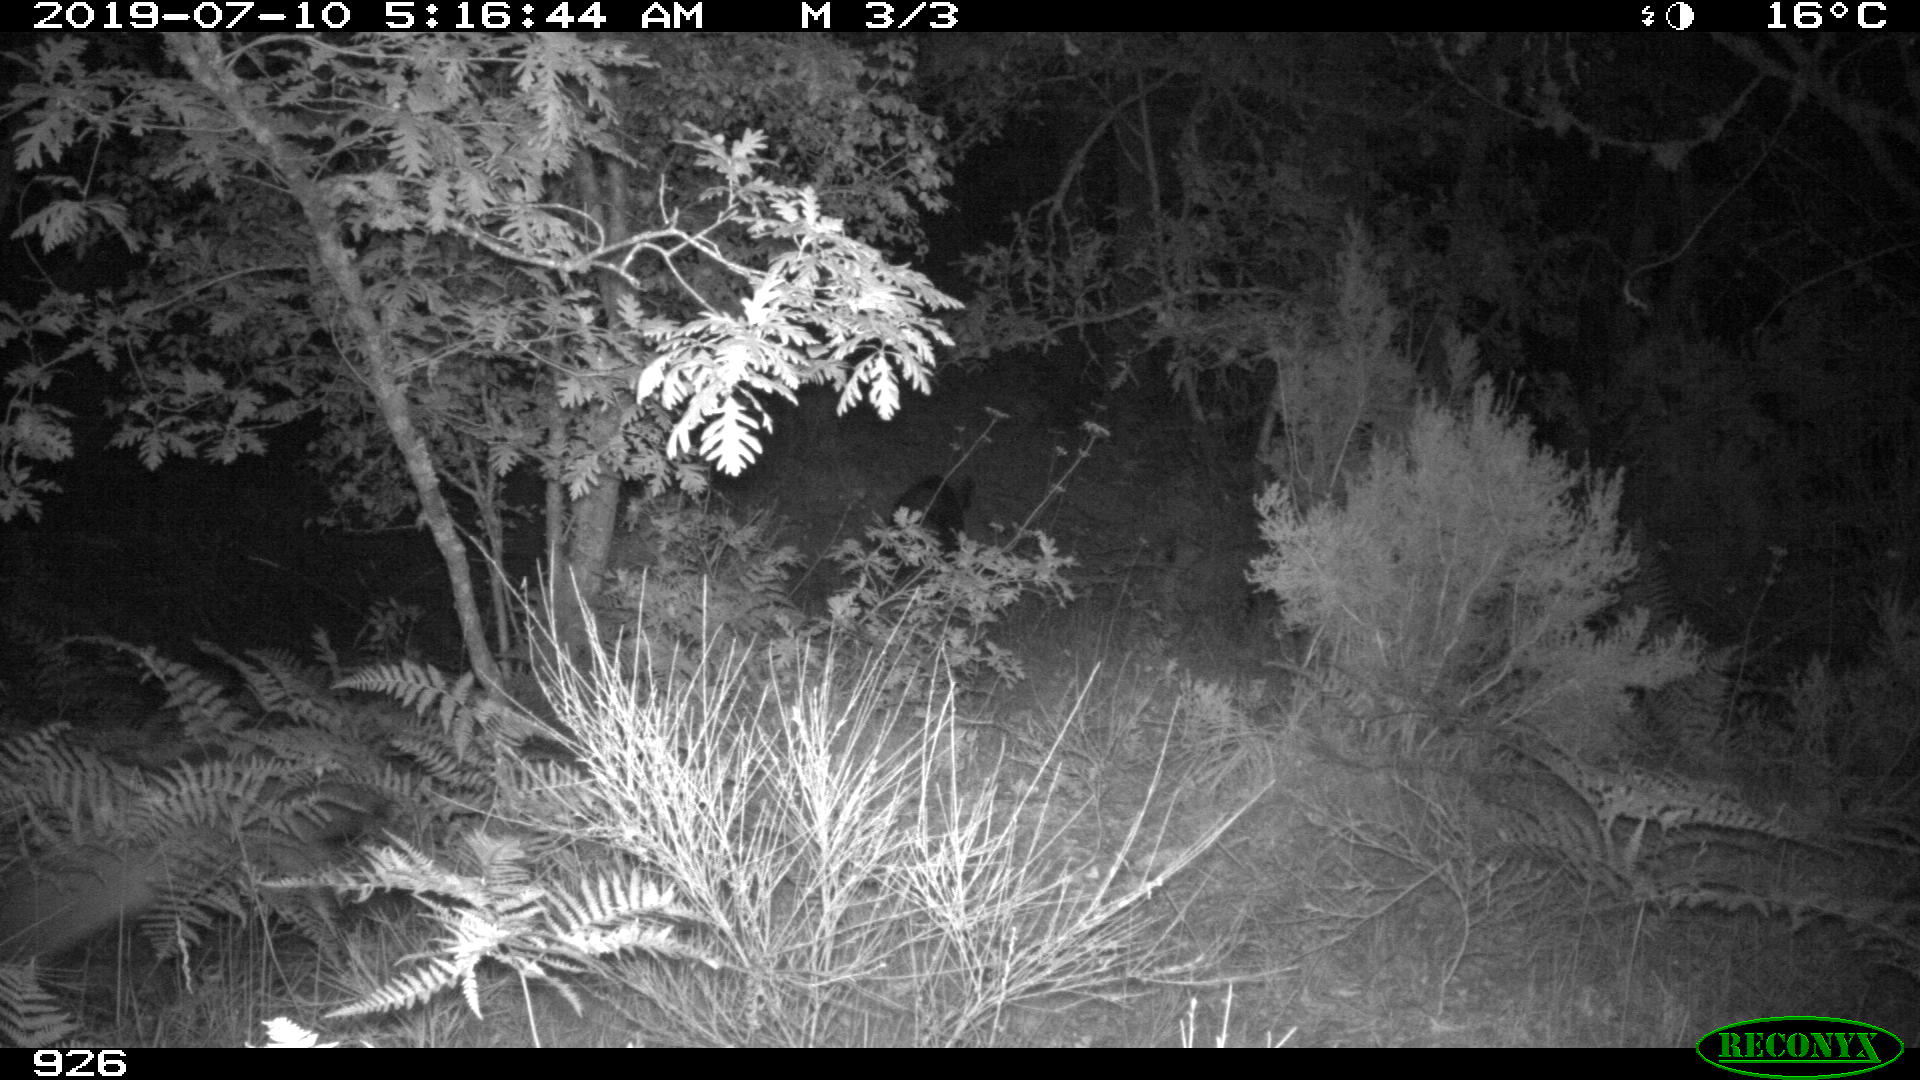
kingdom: Animalia
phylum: Chordata
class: Mammalia
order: Artiodactyla
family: Suidae
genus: Sus
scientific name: Sus scrofa
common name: Wild boar
